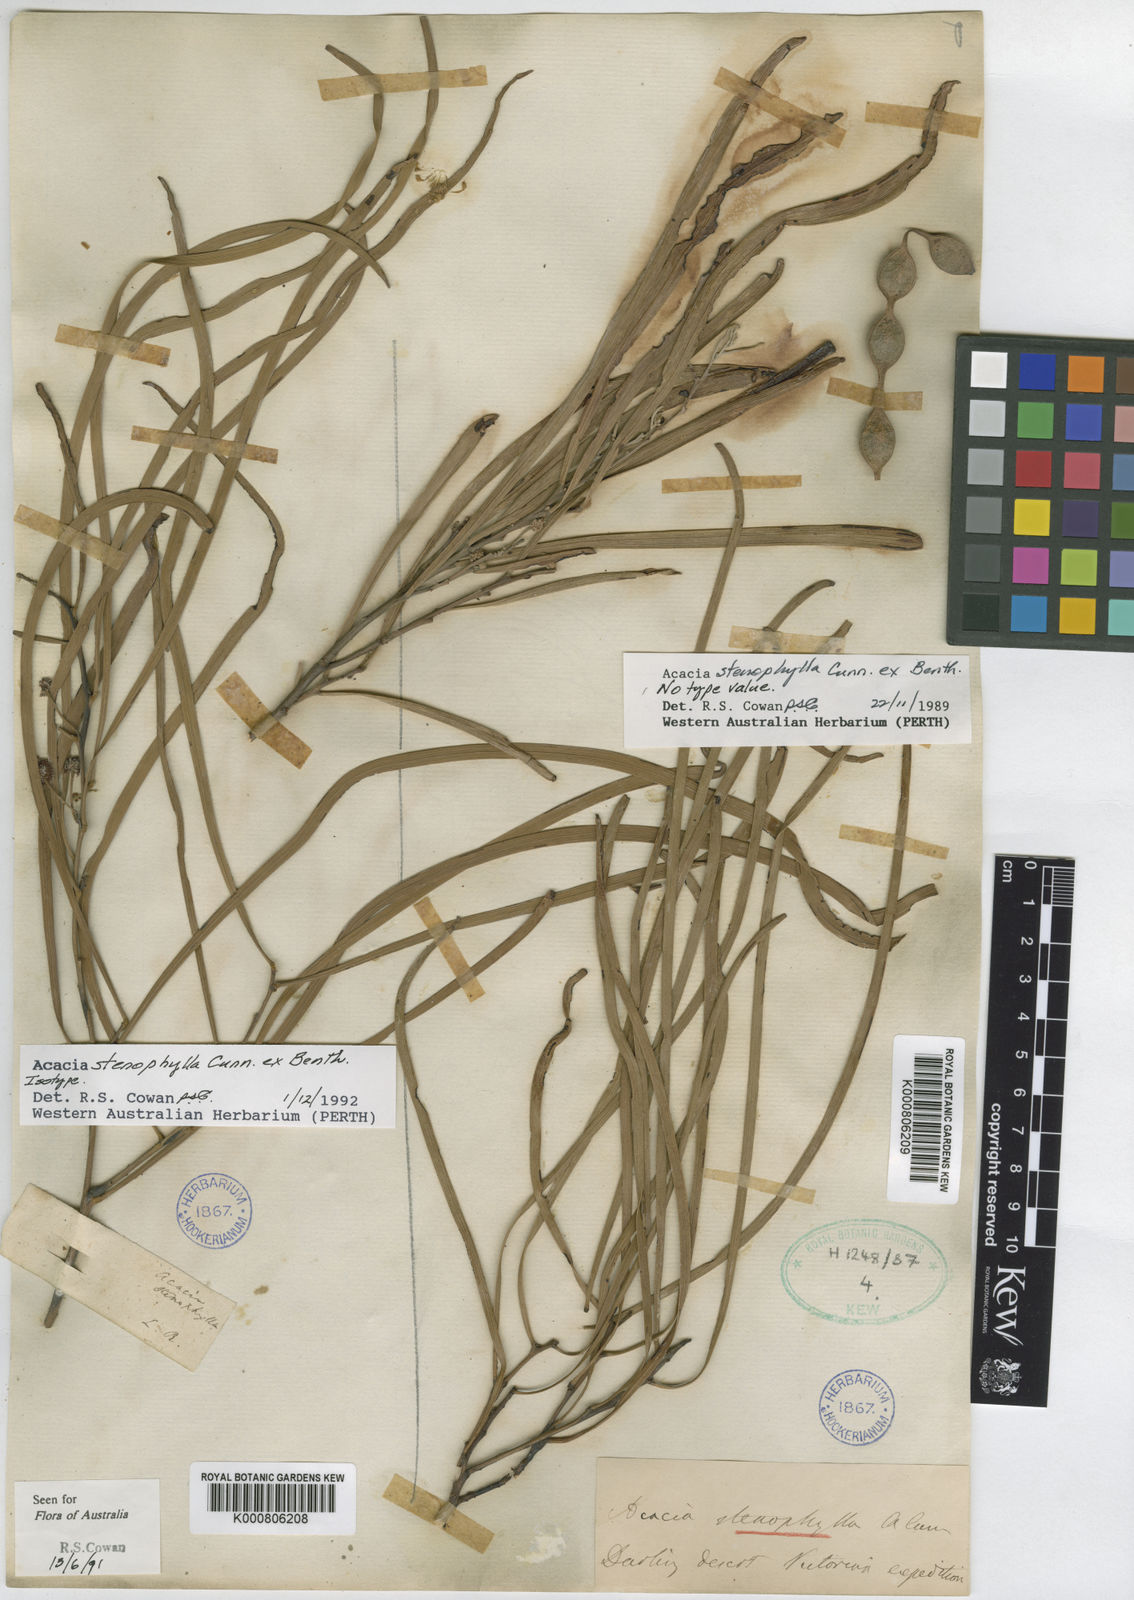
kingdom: Plantae
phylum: Tracheophyta
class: Magnoliopsida
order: Fabales
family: Fabaceae
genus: Acacia
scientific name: Acacia stenophylla
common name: River cooba
